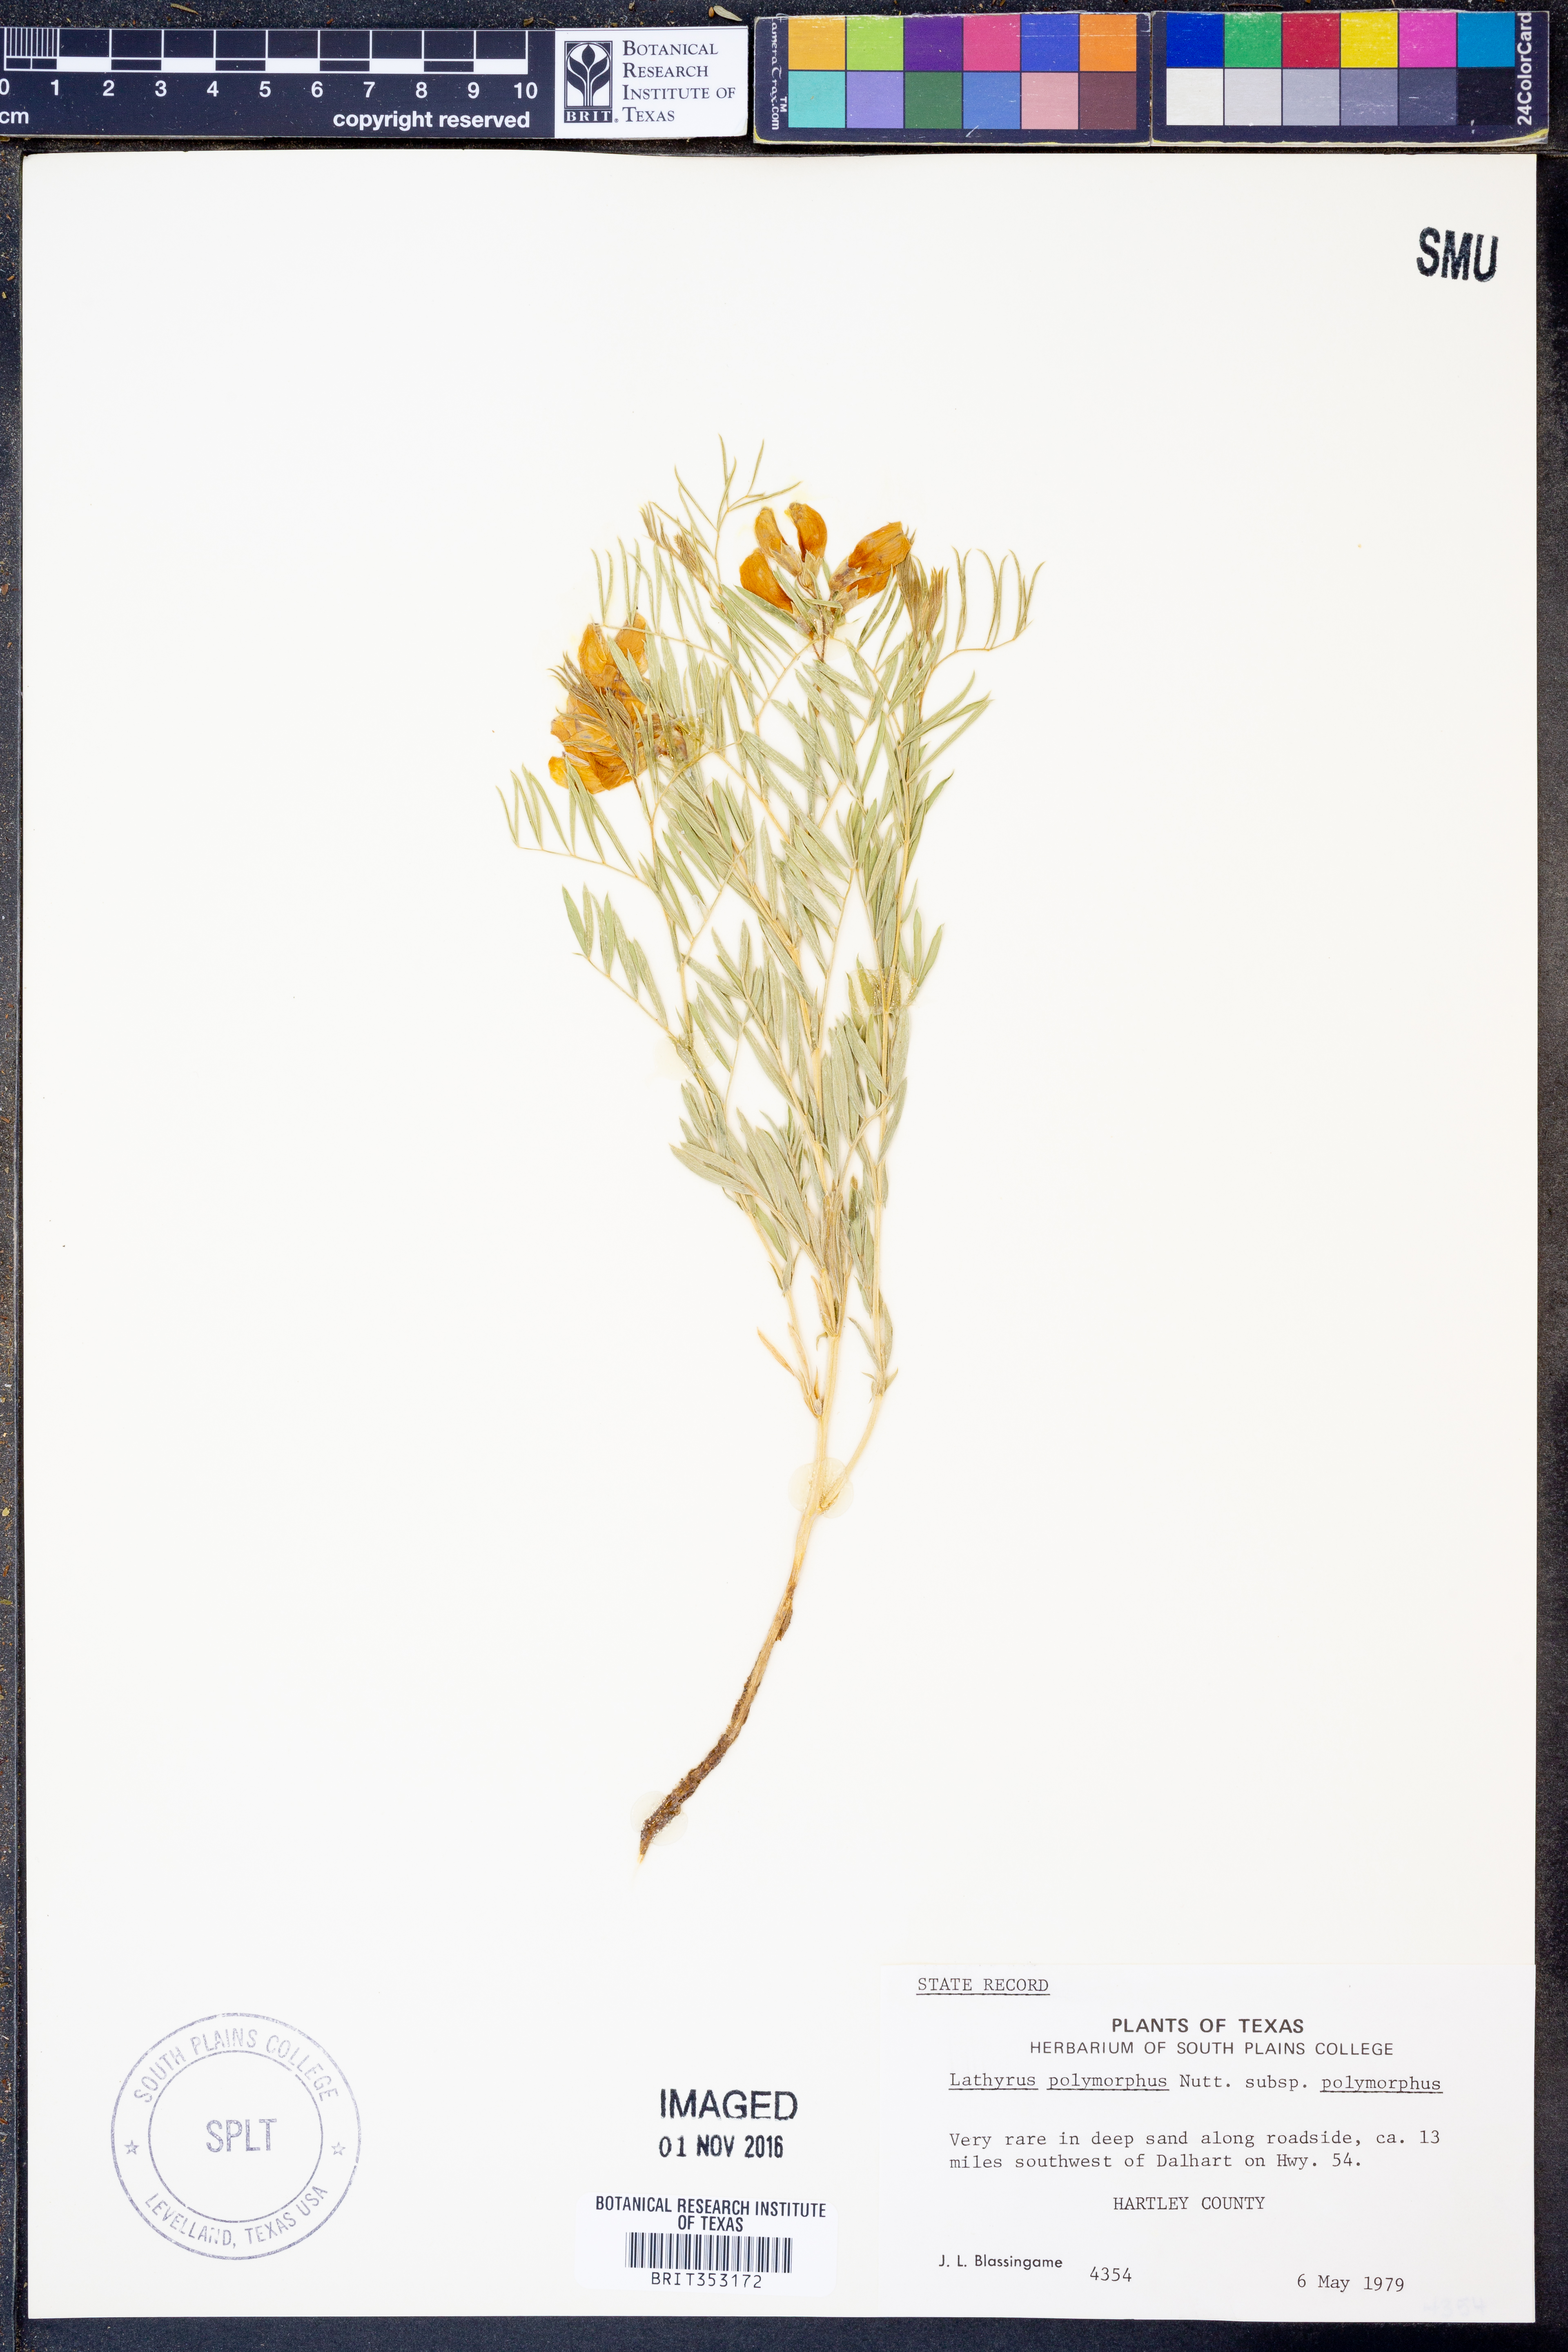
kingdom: Plantae
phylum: Tracheophyta
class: Magnoliopsida
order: Fabales
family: Fabaceae
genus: Lathyrus
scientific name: Lathyrus decaphyllus
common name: Prairie vetchling
